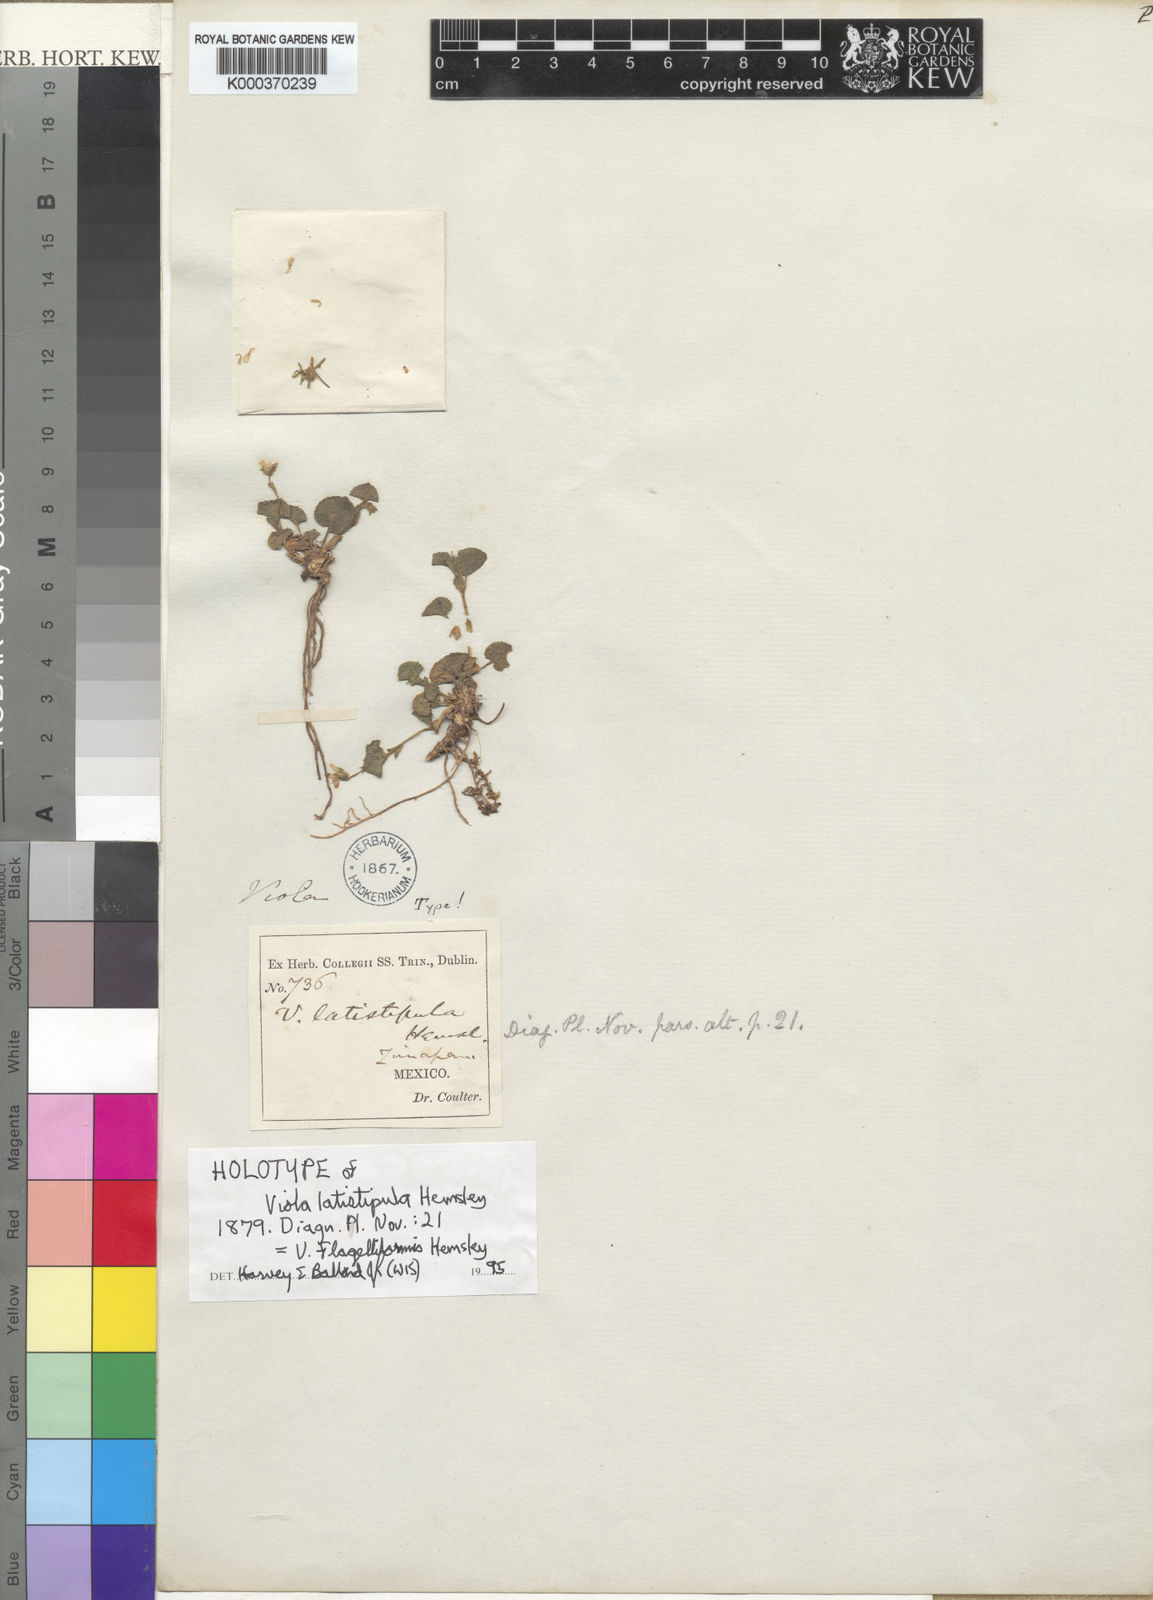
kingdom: Plantae
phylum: Tracheophyta
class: Magnoliopsida
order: Malpighiales
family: Violaceae
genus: Viola
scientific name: Viola flagelliformis
